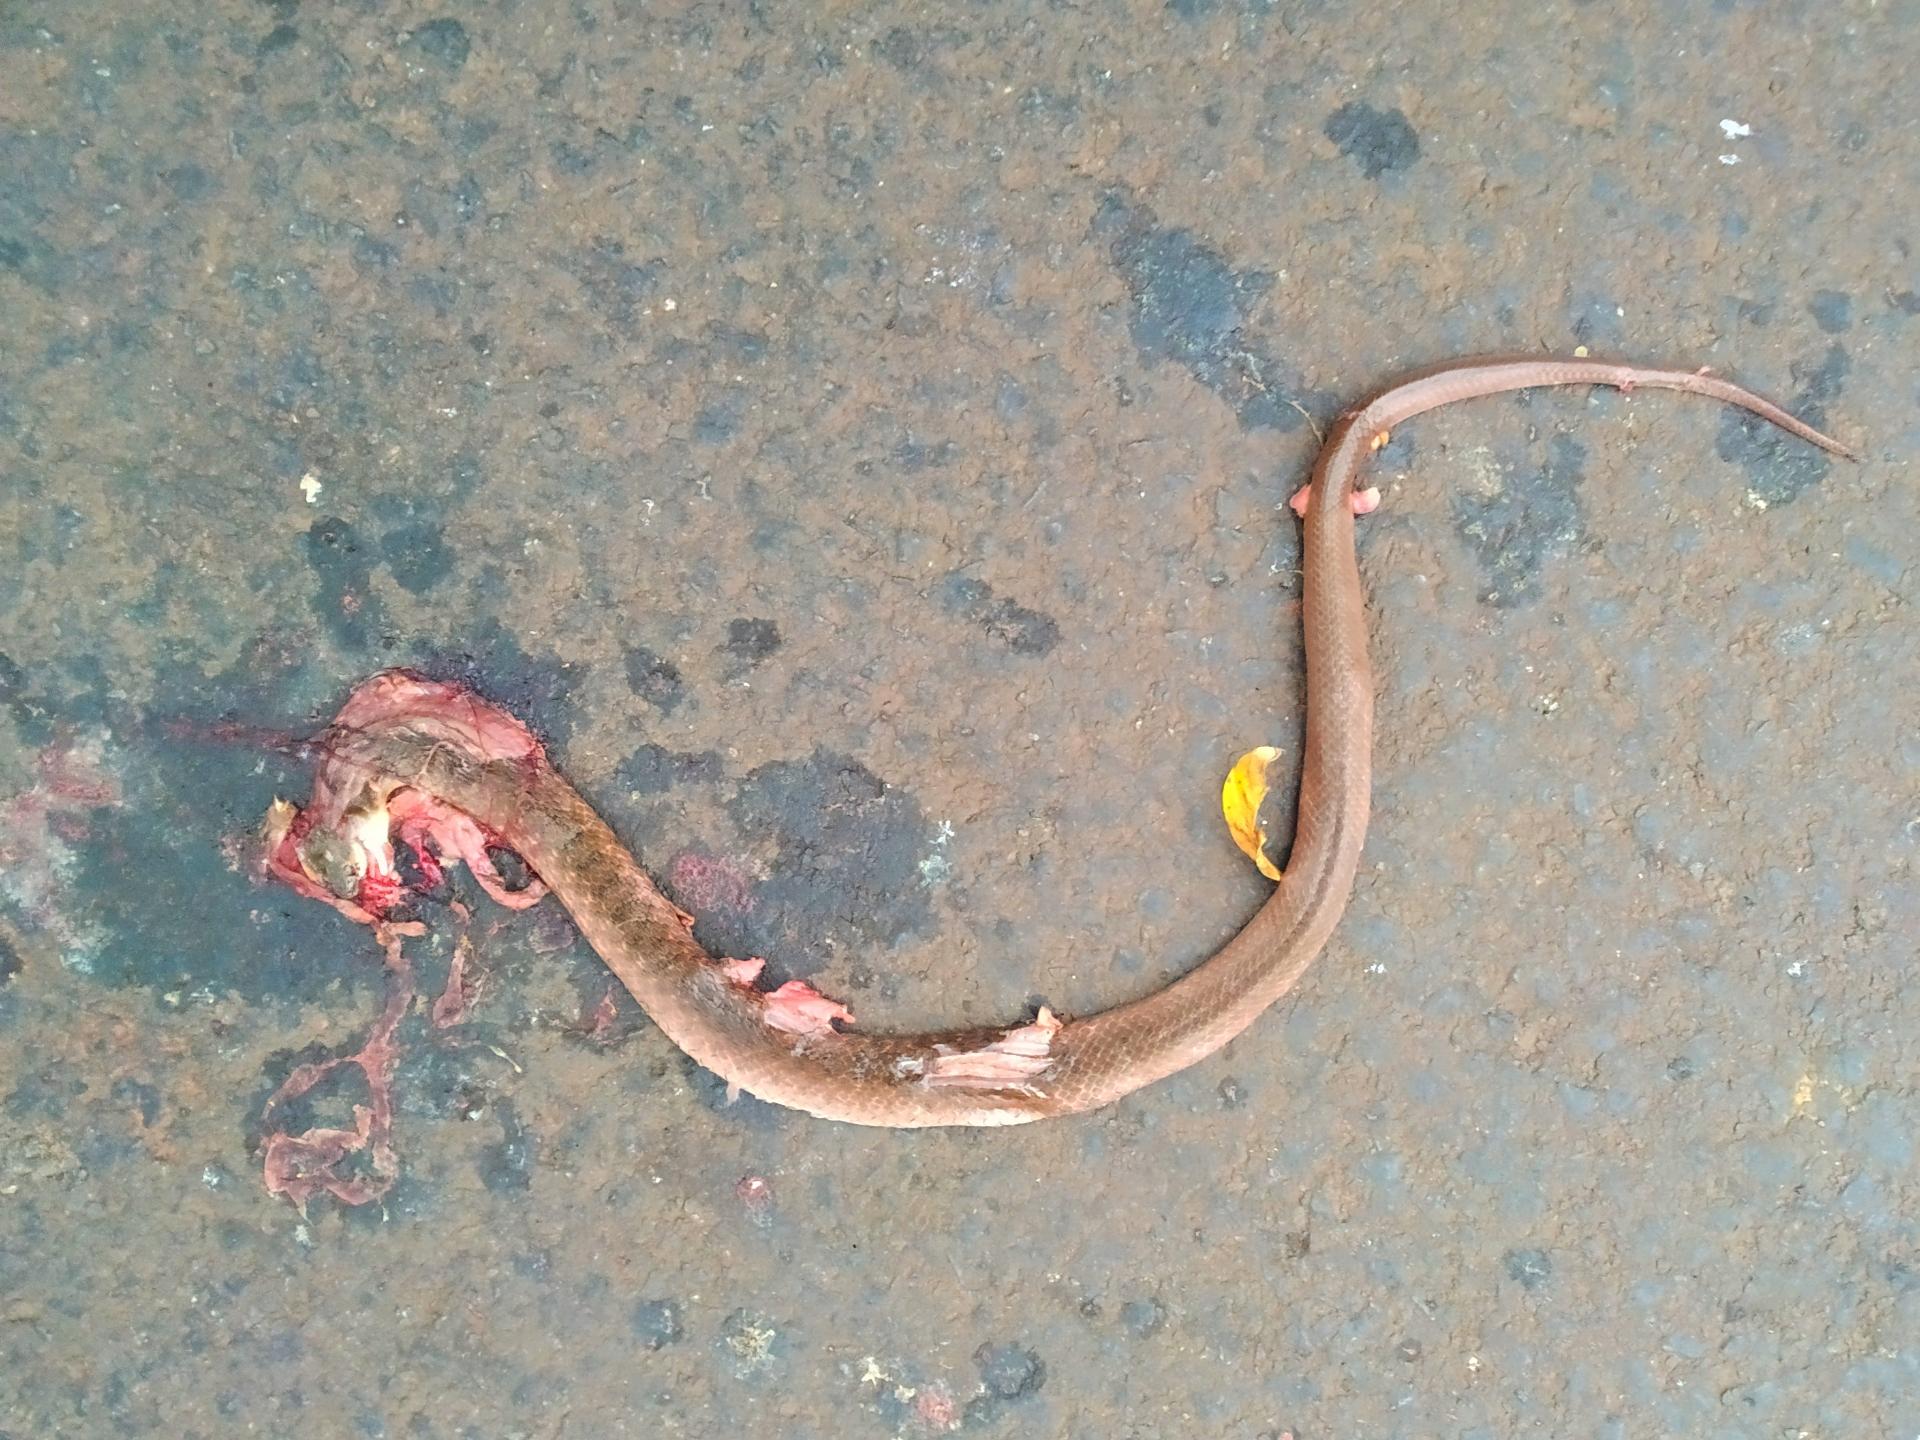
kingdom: Animalia
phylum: Chordata
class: Squamata
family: Colubridae
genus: Fowlea
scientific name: Fowlea piscator
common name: Asiatic water snake
